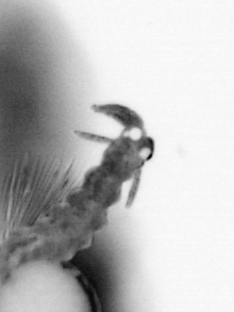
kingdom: Animalia
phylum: Annelida
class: Polychaeta
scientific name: Polychaeta
